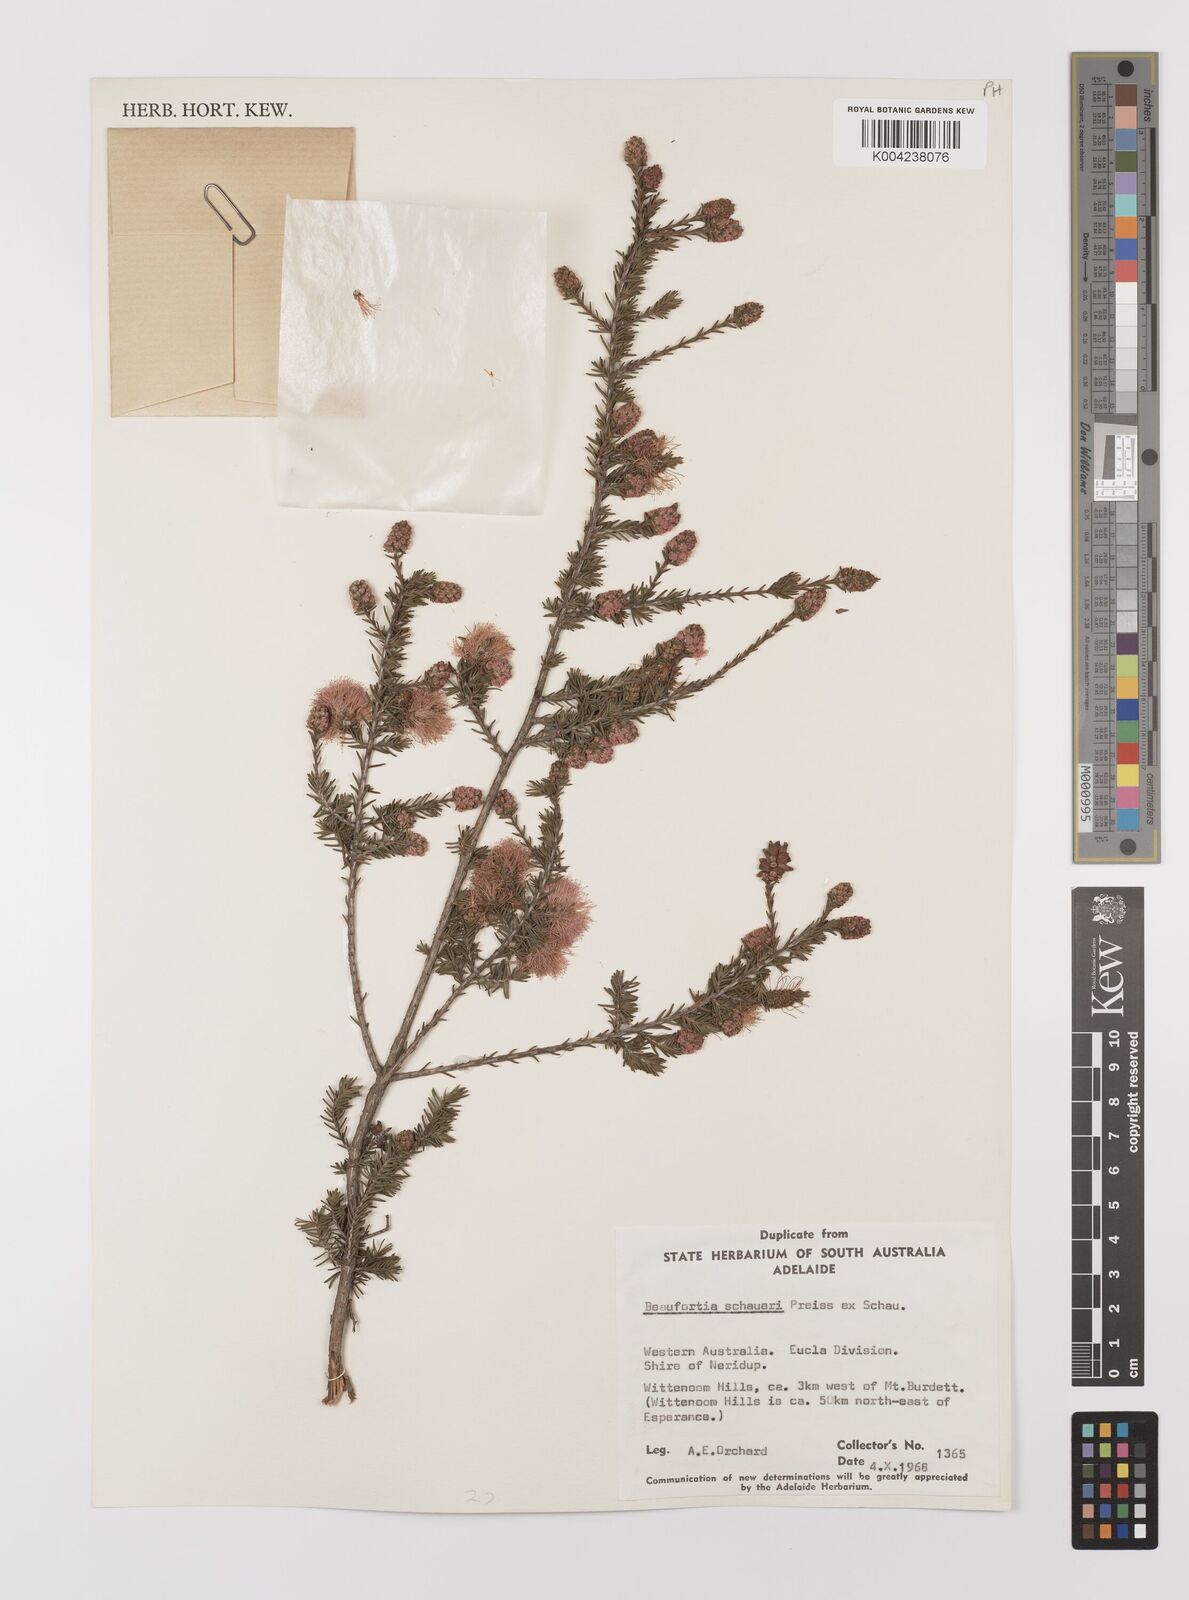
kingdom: Plantae
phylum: Tracheophyta
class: Magnoliopsida
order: Myrtales
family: Myrtaceae
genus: Melaleuca
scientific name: Melaleuca jonesii
